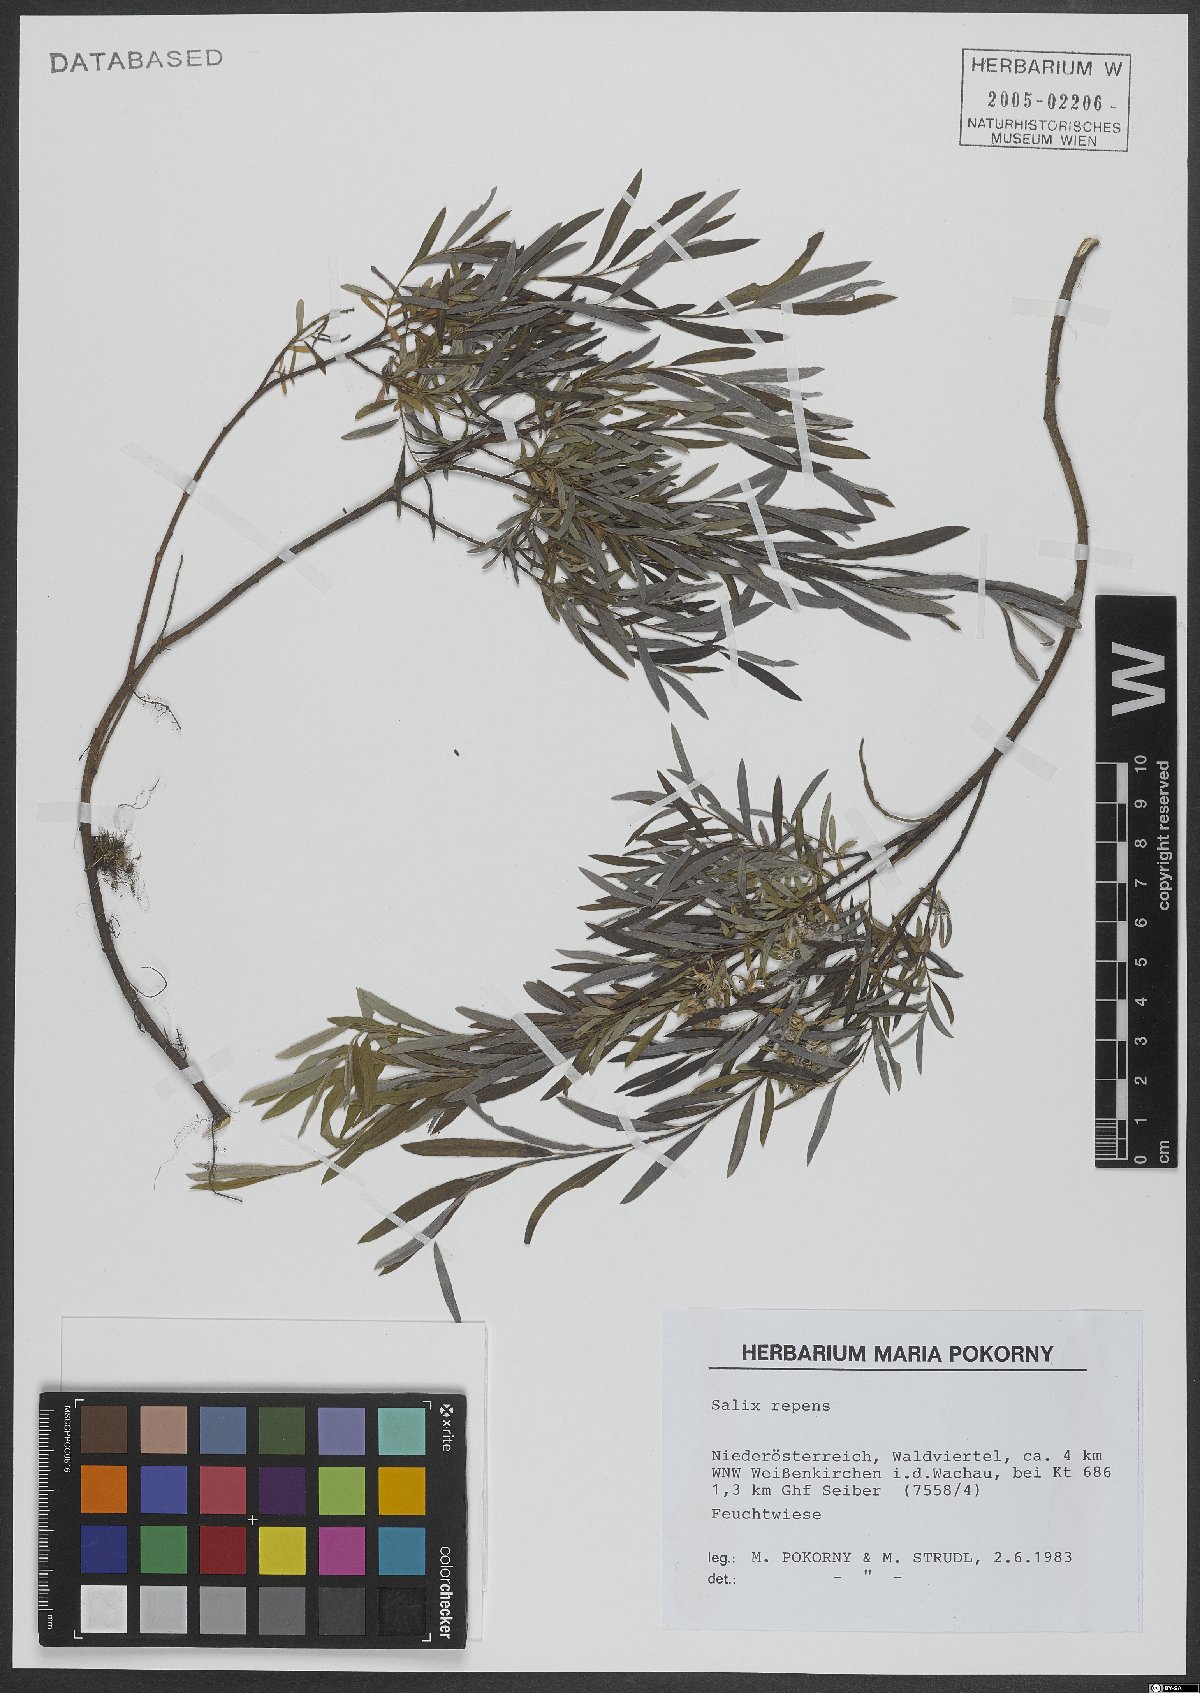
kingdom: Plantae
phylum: Tracheophyta
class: Magnoliopsida
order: Malpighiales
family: Salicaceae
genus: Salix
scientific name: Salix repens
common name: Creeping willow
